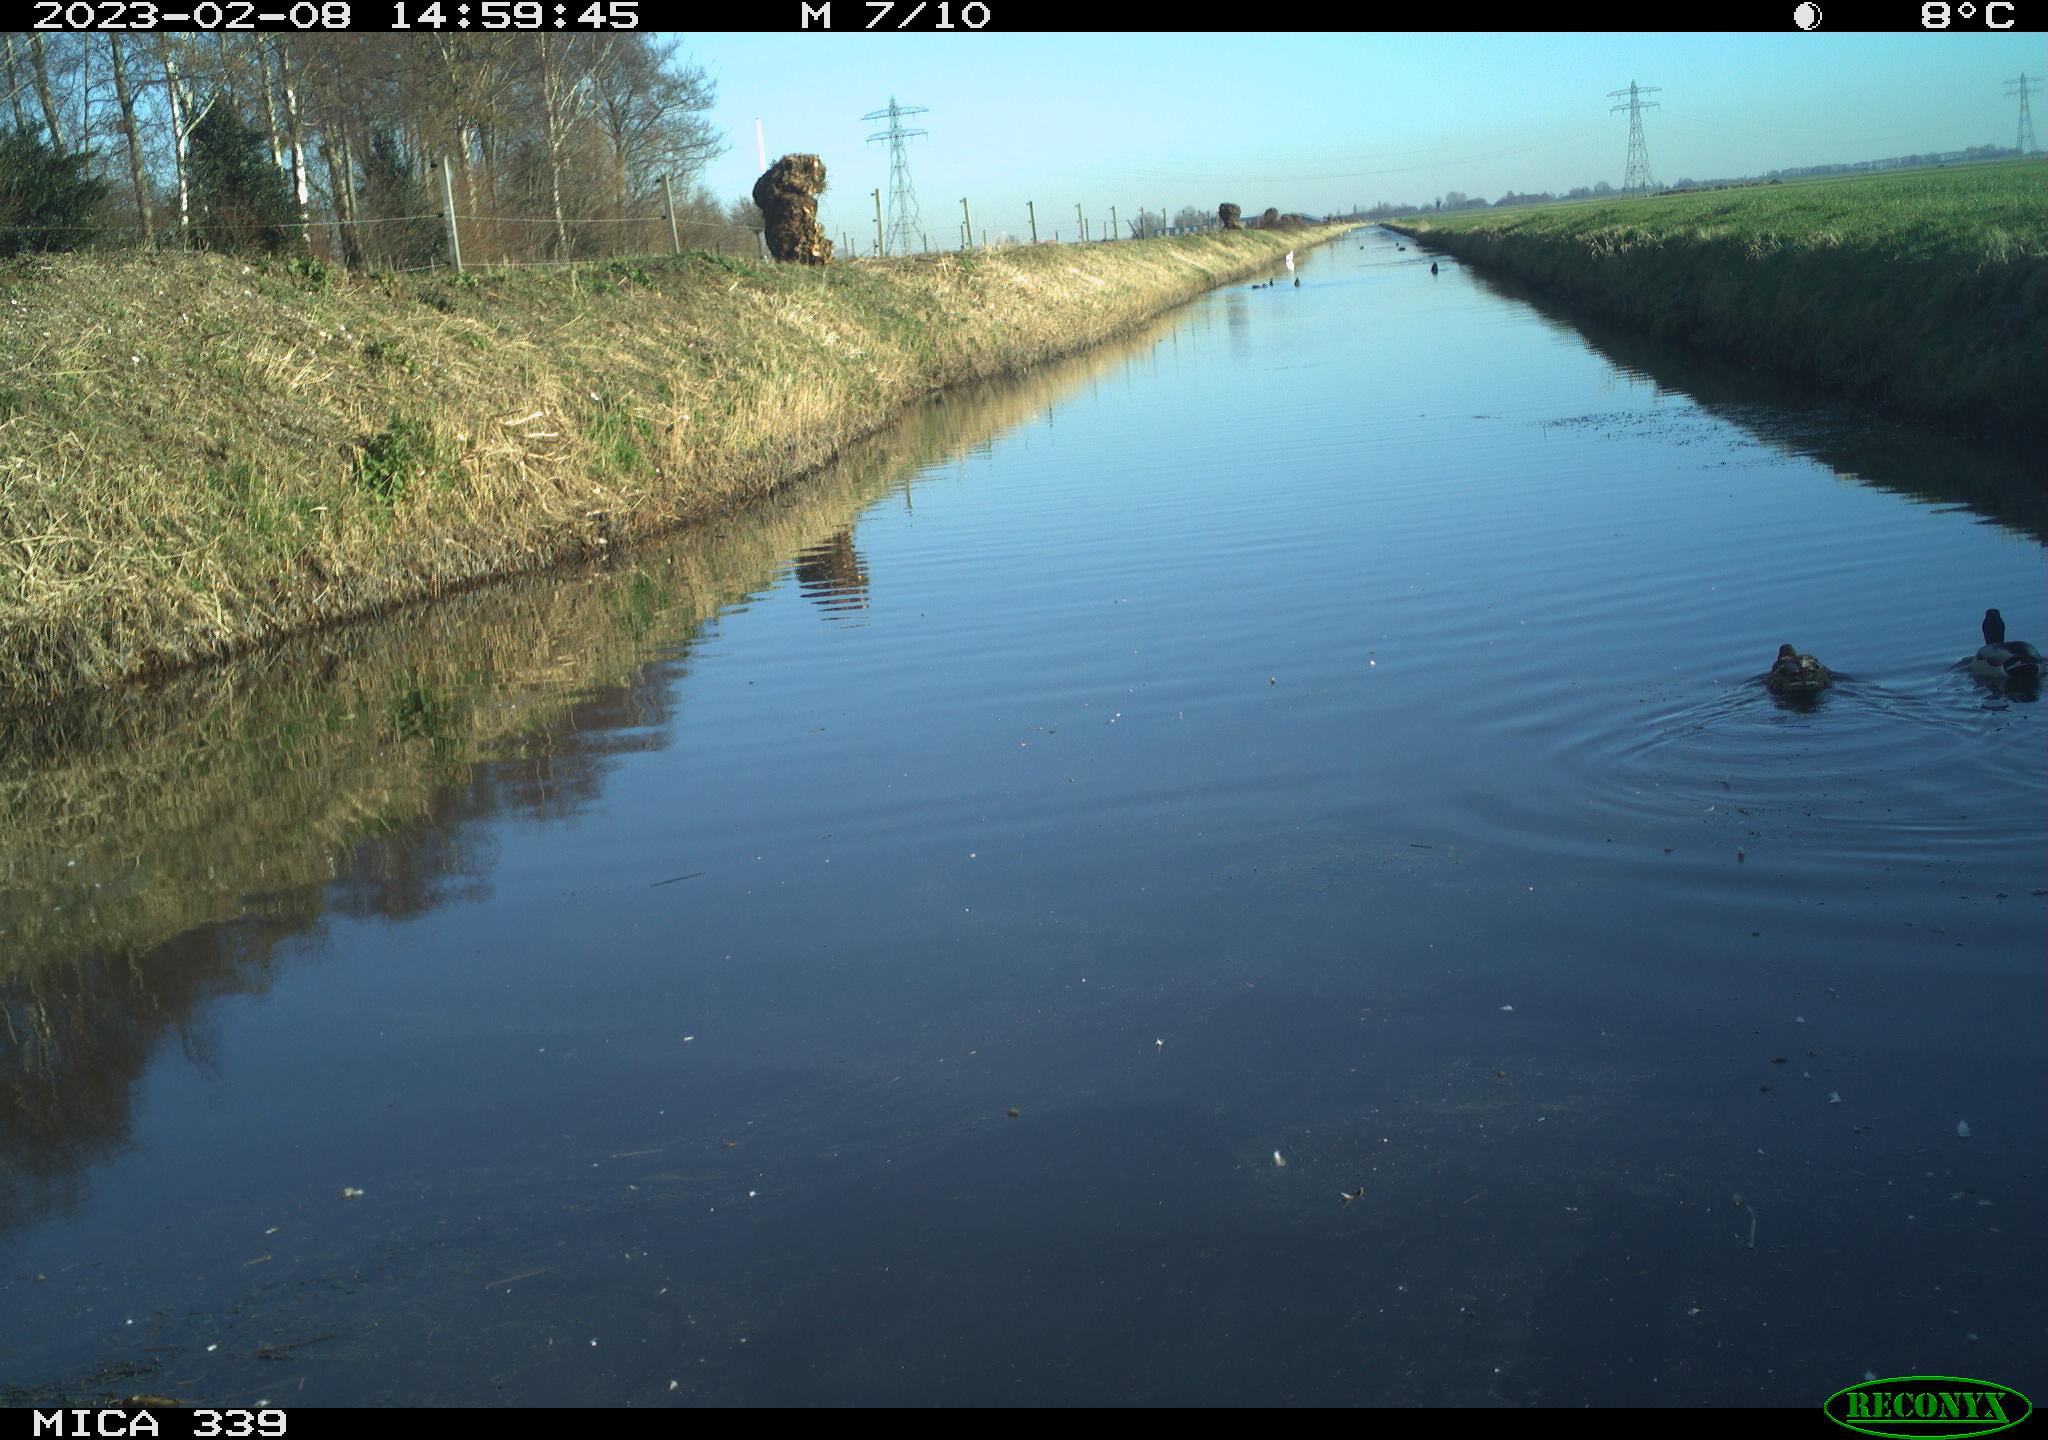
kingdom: Animalia
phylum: Chordata
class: Aves
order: Anseriformes
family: Anatidae
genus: Anas
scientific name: Anas
